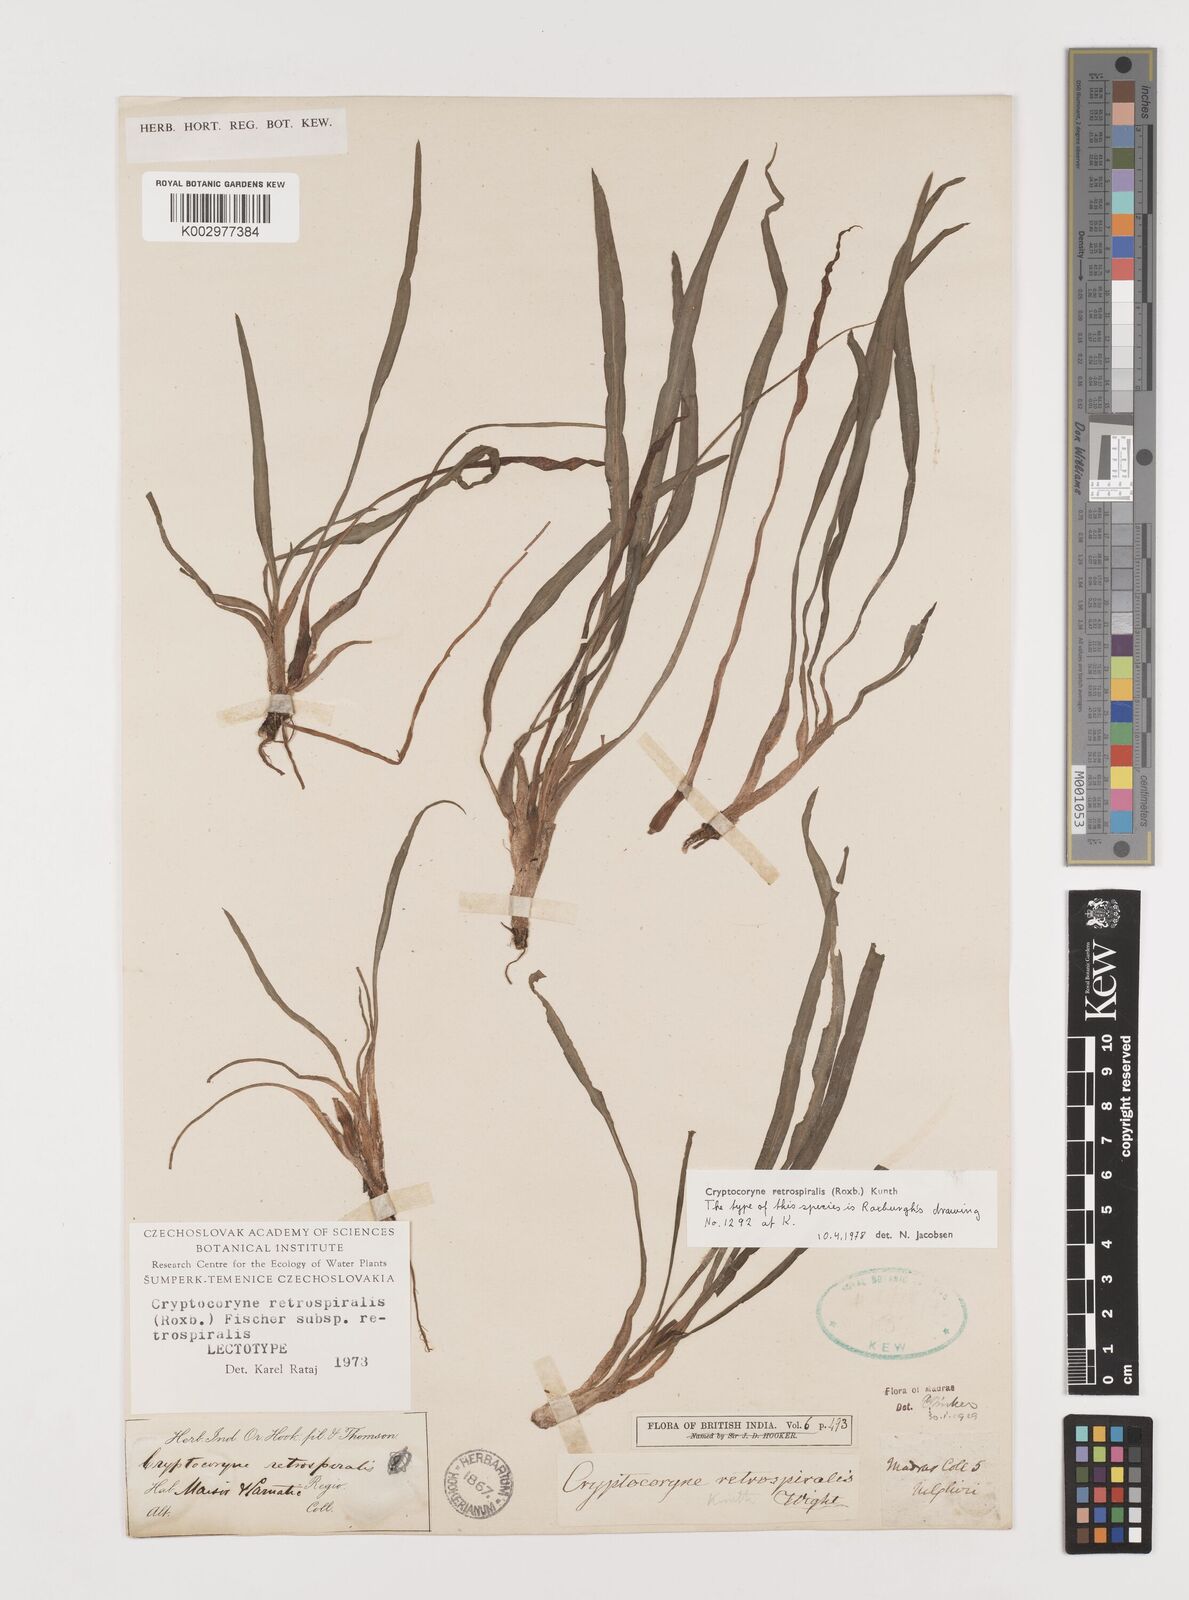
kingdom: Plantae
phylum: Tracheophyta
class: Liliopsida
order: Alismatales
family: Araceae
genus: Cryptocoryne
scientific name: Cryptocoryne retrospiralis
